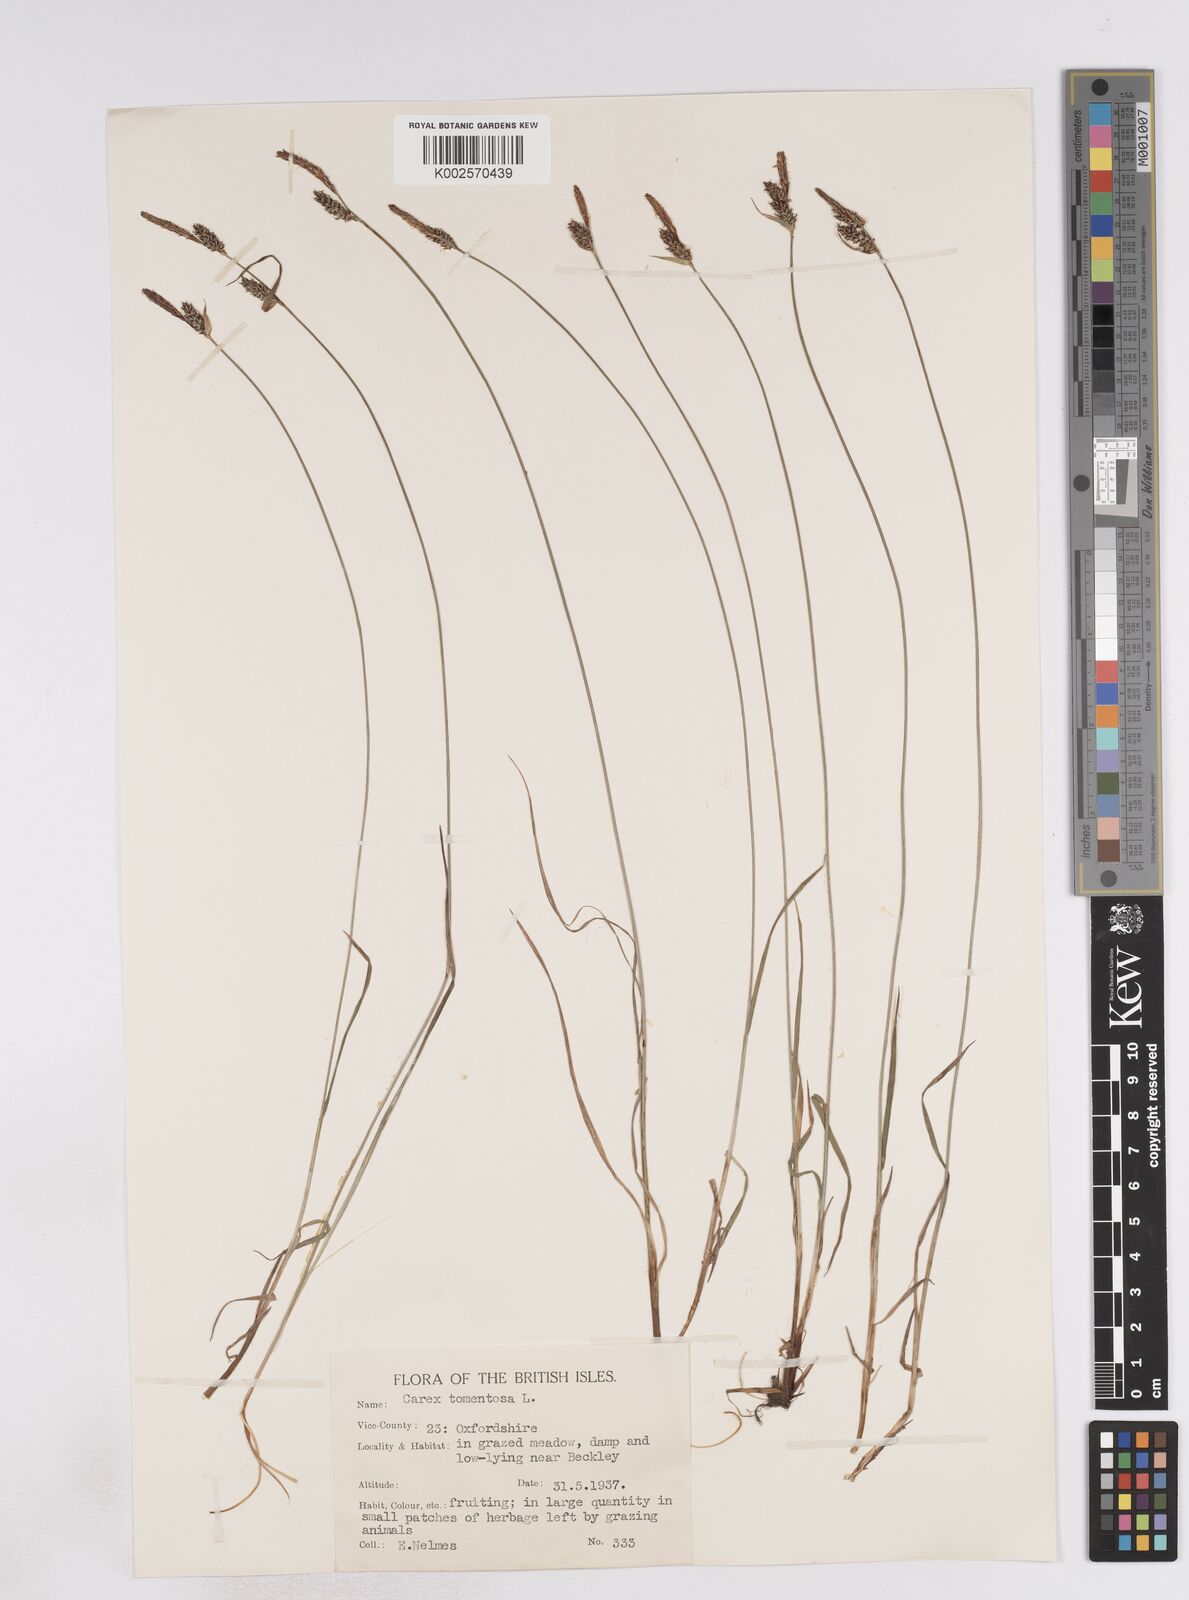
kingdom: Plantae
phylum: Tracheophyta
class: Liliopsida
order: Poales
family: Cyperaceae
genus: Carex
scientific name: Carex montana
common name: Soft-leaved sedge
